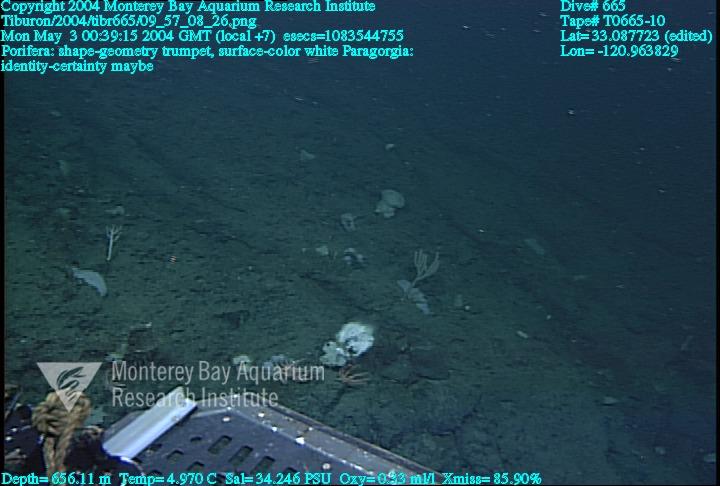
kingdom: Animalia
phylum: Porifera
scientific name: Porifera
